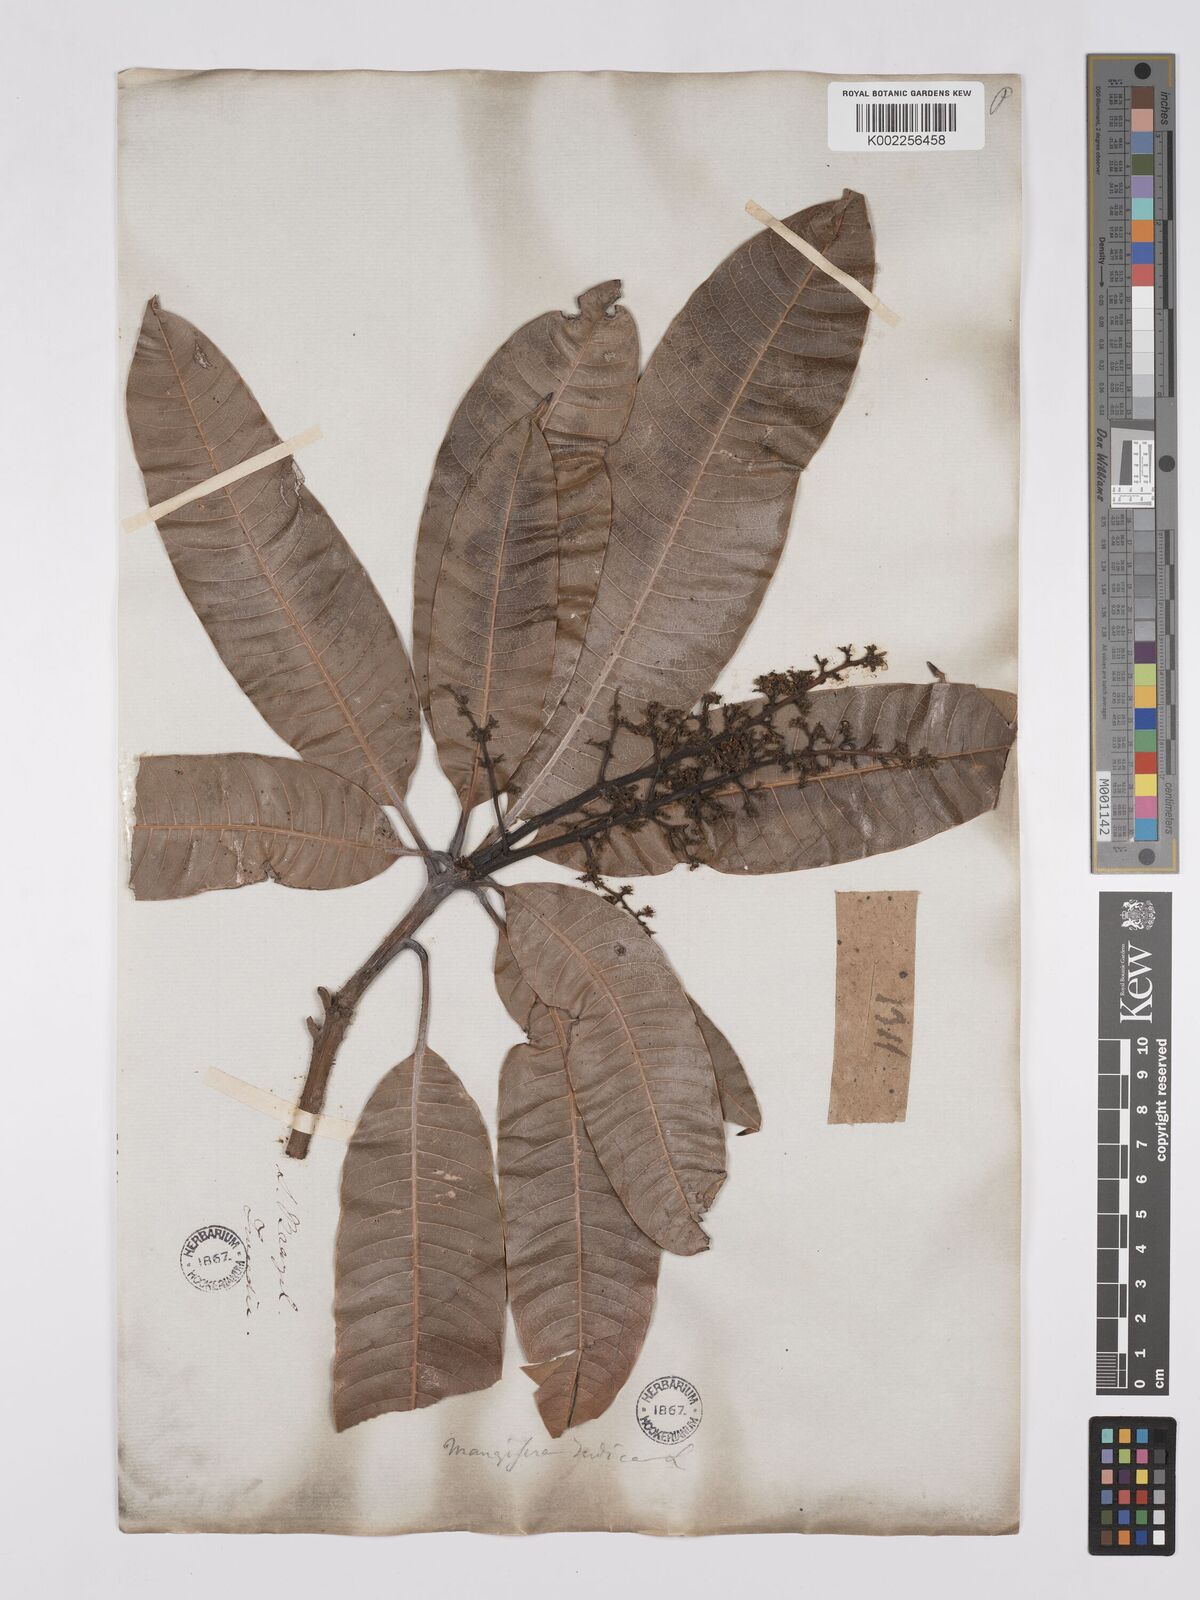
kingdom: Plantae
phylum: Tracheophyta
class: Magnoliopsida
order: Sapindales
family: Anacardiaceae
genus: Mangifera
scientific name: Mangifera indica
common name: Mango
